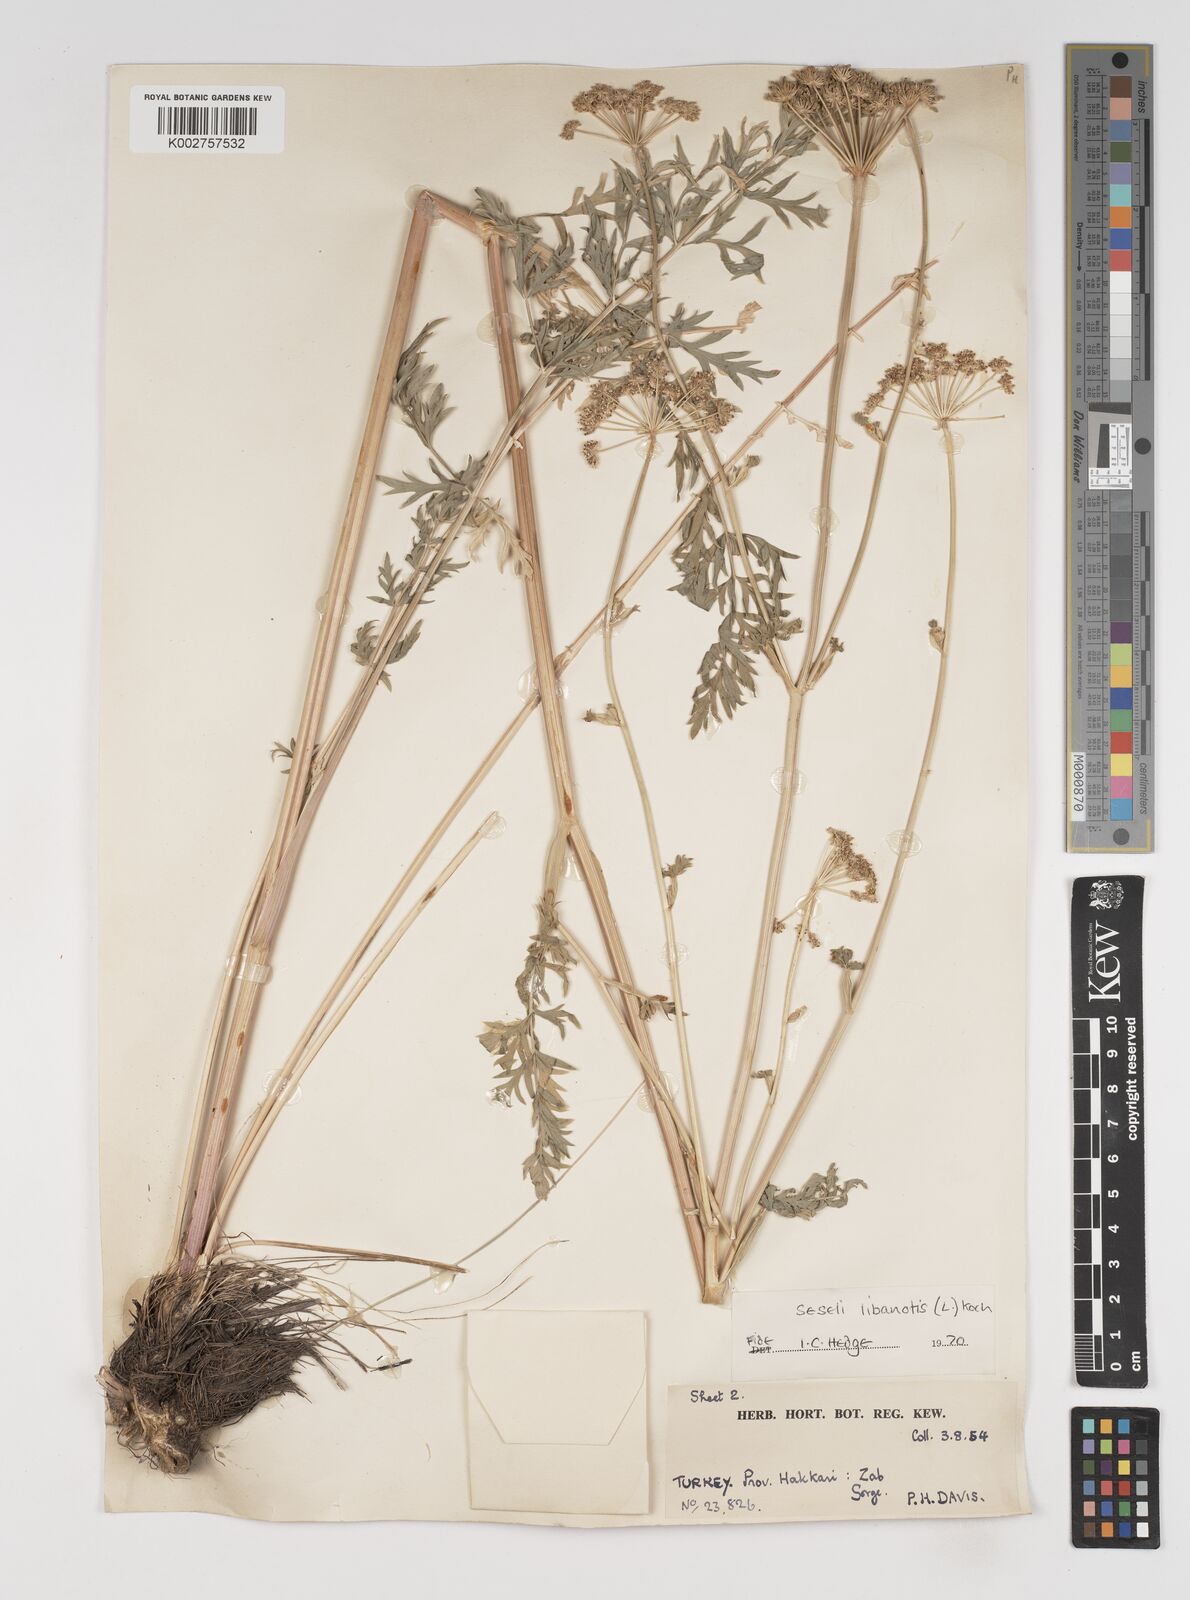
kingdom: Plantae
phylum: Tracheophyta
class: Magnoliopsida
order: Apiales
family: Apiaceae
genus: Seseli
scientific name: Seseli libanotis
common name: Mooncarrot
